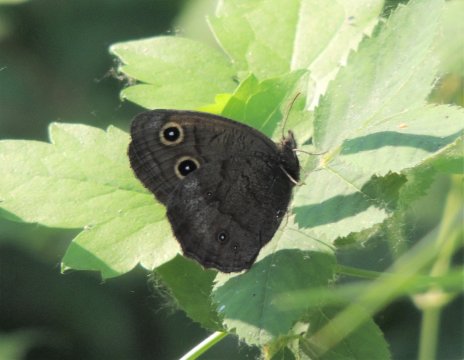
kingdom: Animalia
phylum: Arthropoda
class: Insecta
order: Lepidoptera
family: Nymphalidae
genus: Cercyonis
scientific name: Cercyonis pegala
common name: Common Wood-Nymph
